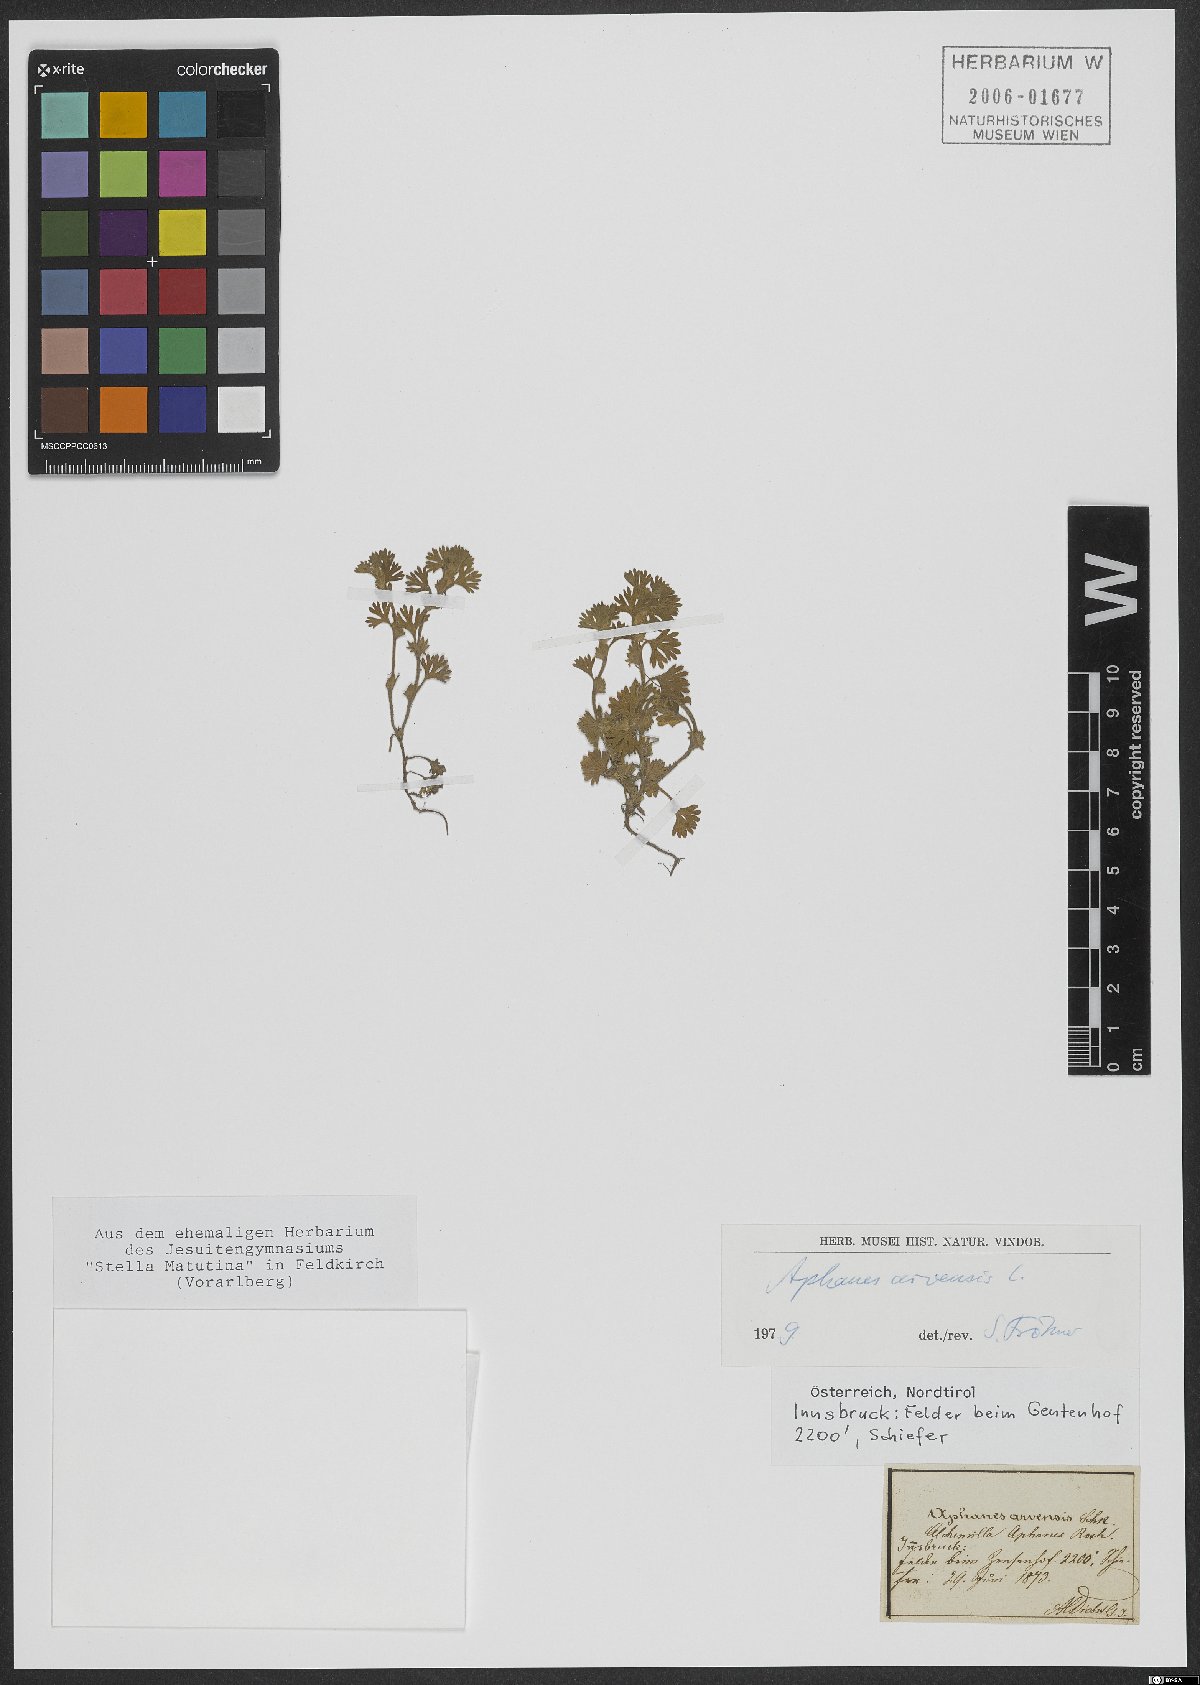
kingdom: Plantae
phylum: Tracheophyta
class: Magnoliopsida
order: Rosales
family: Rosaceae
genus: Aphanes
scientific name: Aphanes arvensis
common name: Parsley-piert
